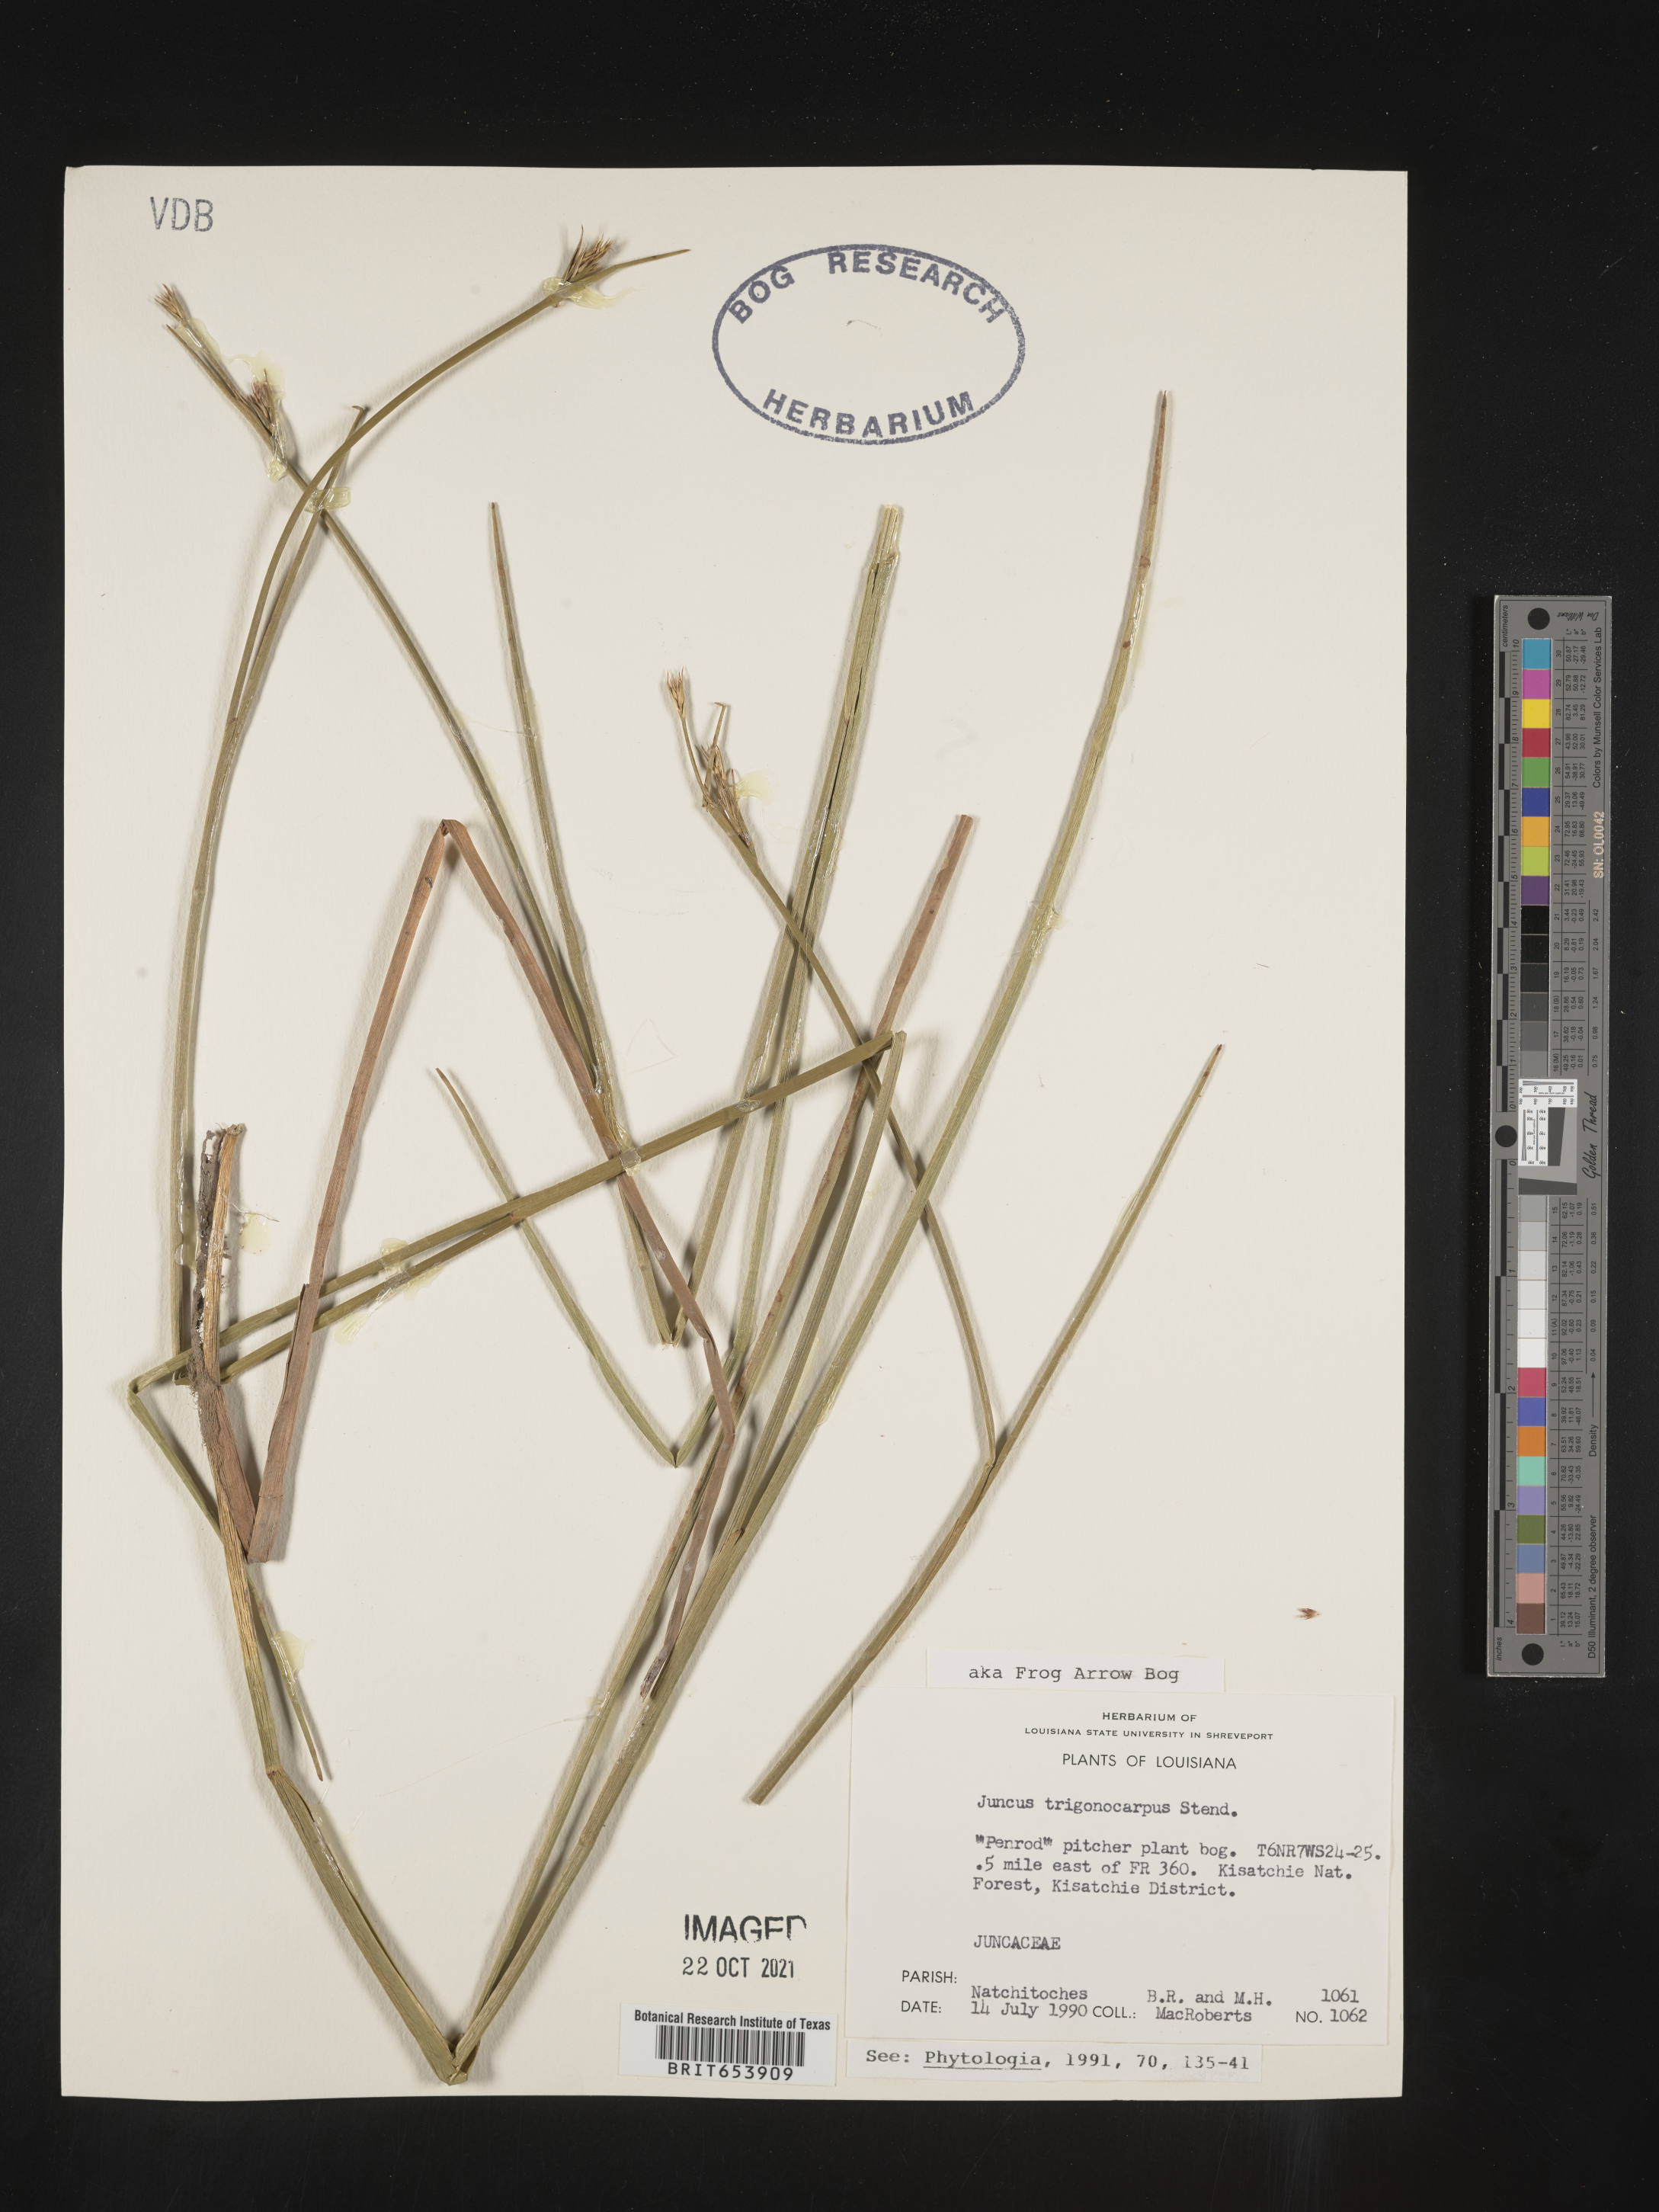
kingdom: Plantae
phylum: Tracheophyta
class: Liliopsida
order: Poales
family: Juncaceae
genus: Juncus
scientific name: Juncus trigonocarpus
